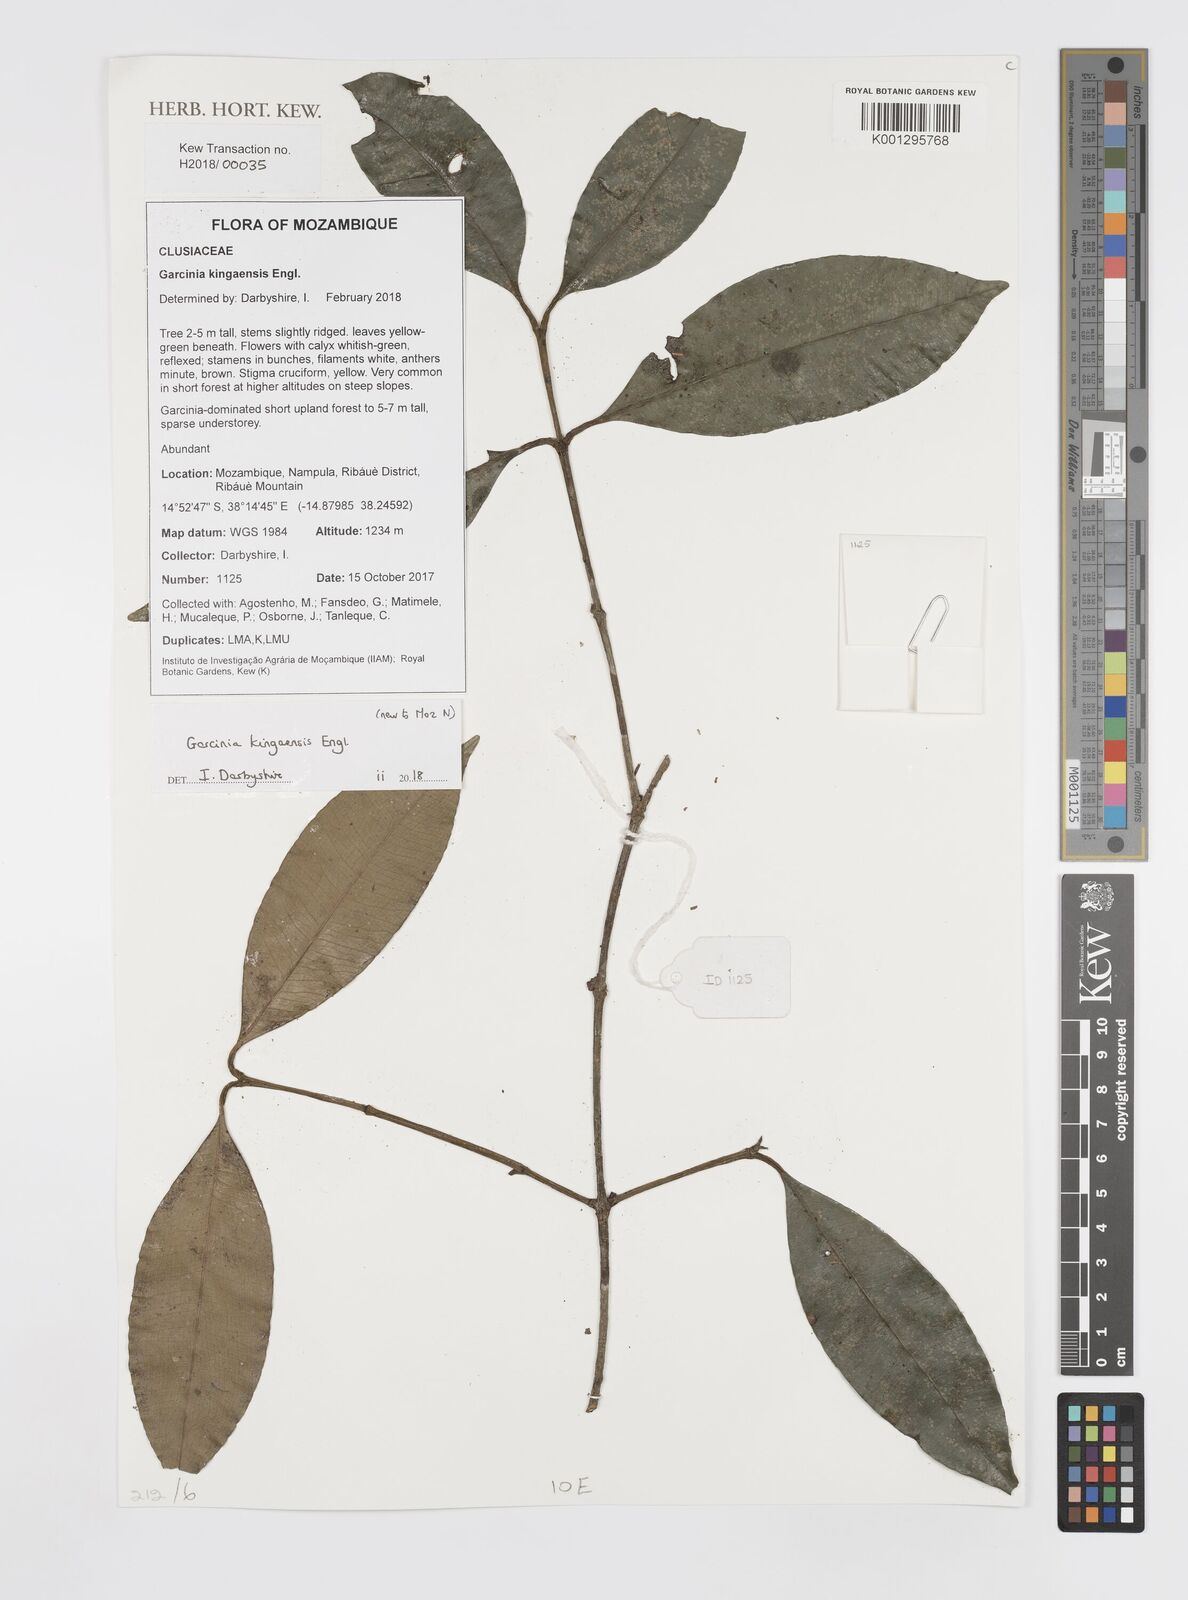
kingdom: Plantae
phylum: Tracheophyta
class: Magnoliopsida
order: Malpighiales
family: Clusiaceae
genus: Garcinia
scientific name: Garcinia kingaensis
